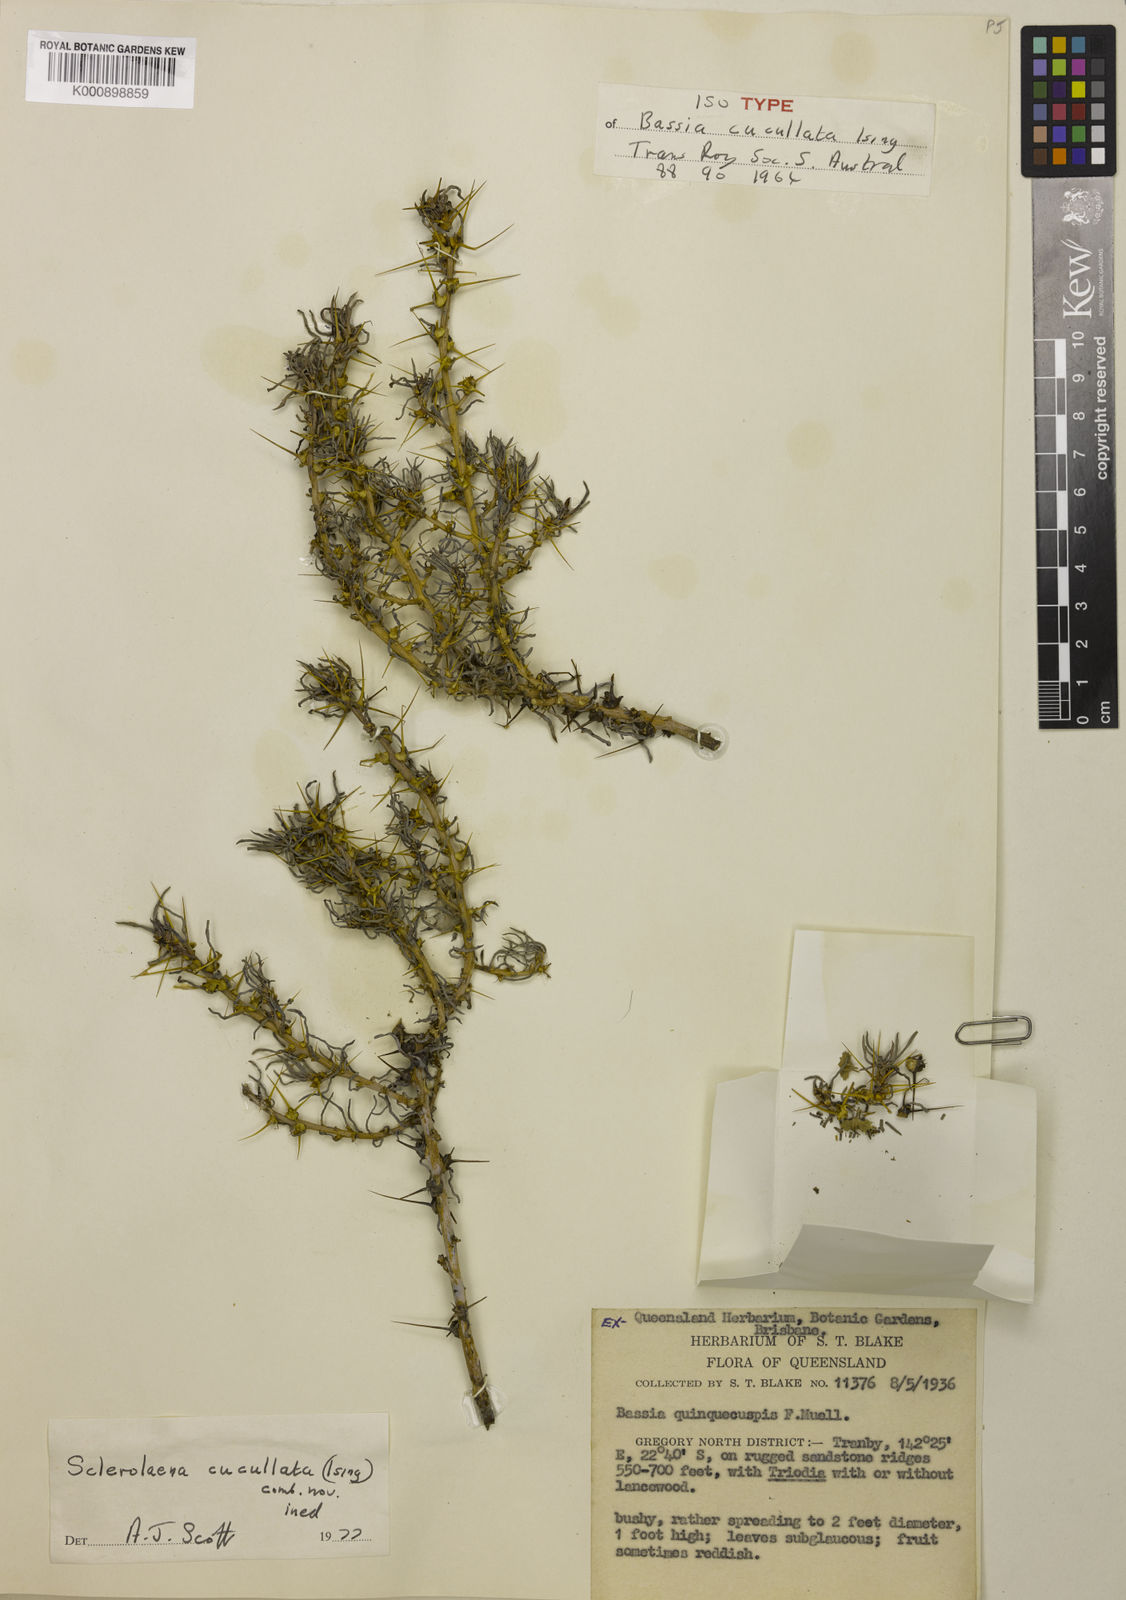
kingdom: Plantae
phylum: Tracheophyta
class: Magnoliopsida
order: Caryophyllales
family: Amaranthaceae
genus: Sclerolaena
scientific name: Sclerolaena longicuspis
